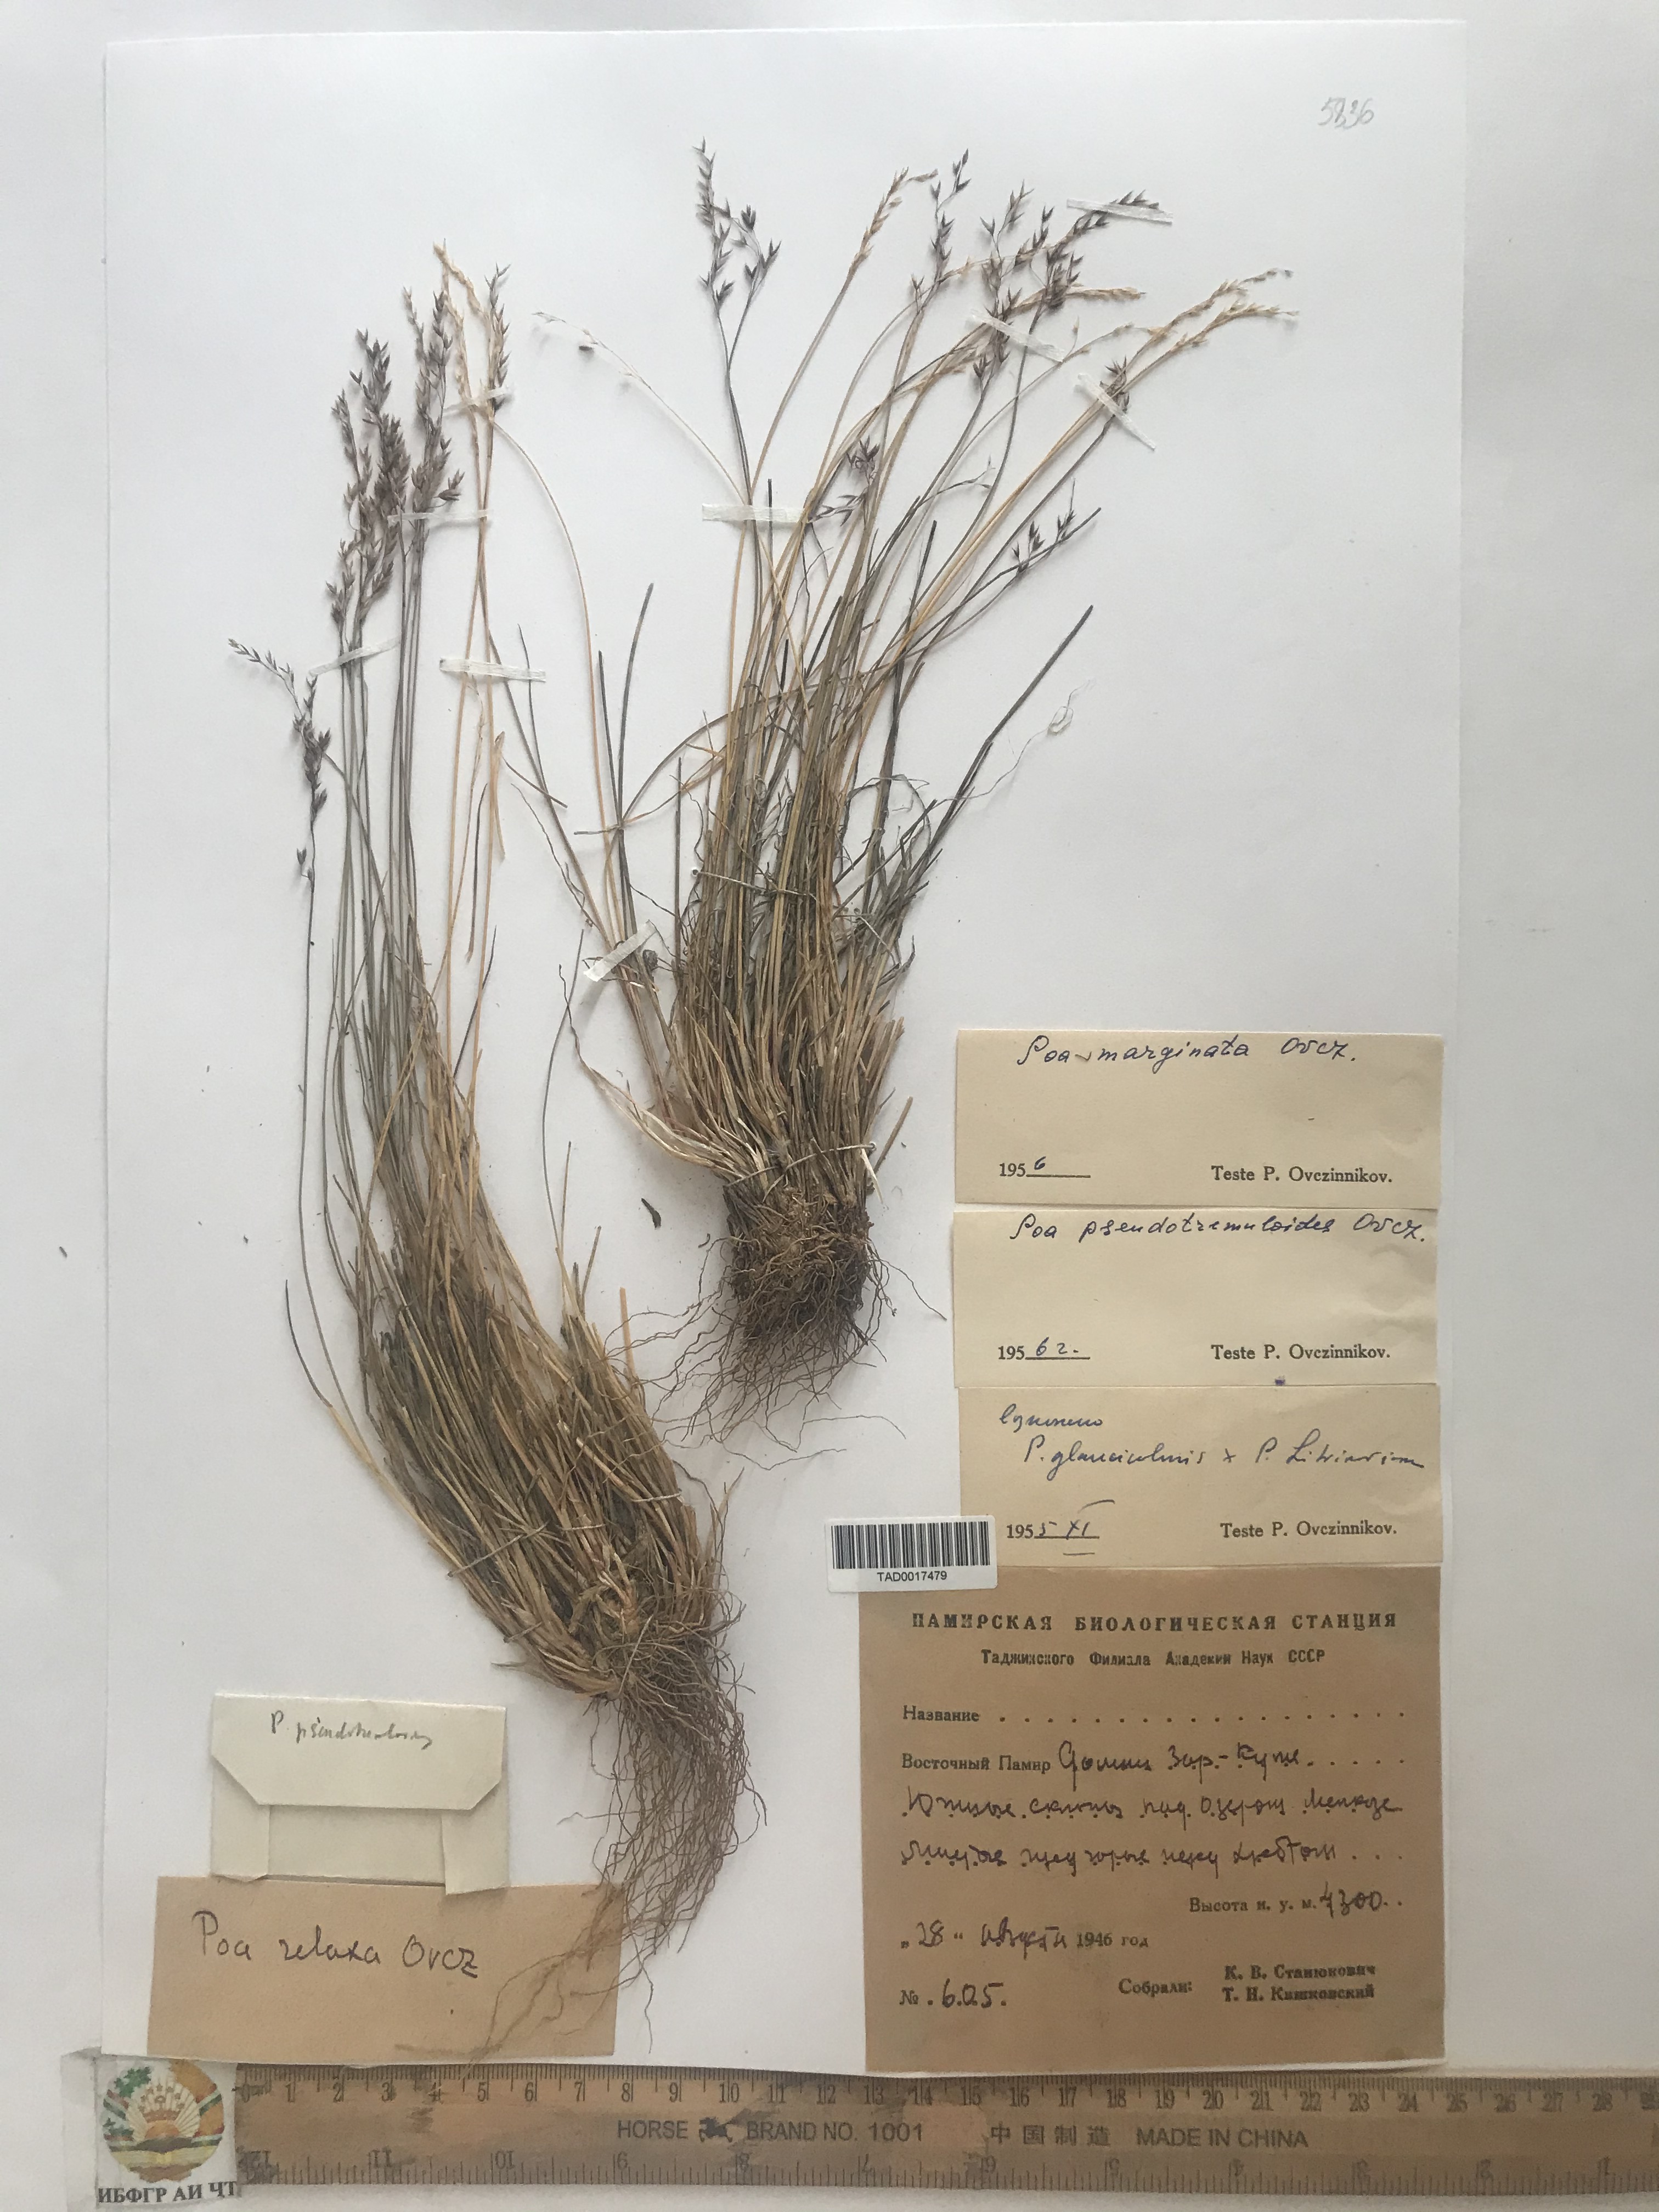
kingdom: Plantae
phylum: Tracheophyta
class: Liliopsida
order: Poales
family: Poaceae
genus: Poa
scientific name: Poa glauca
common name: Glaucous bluegrass
